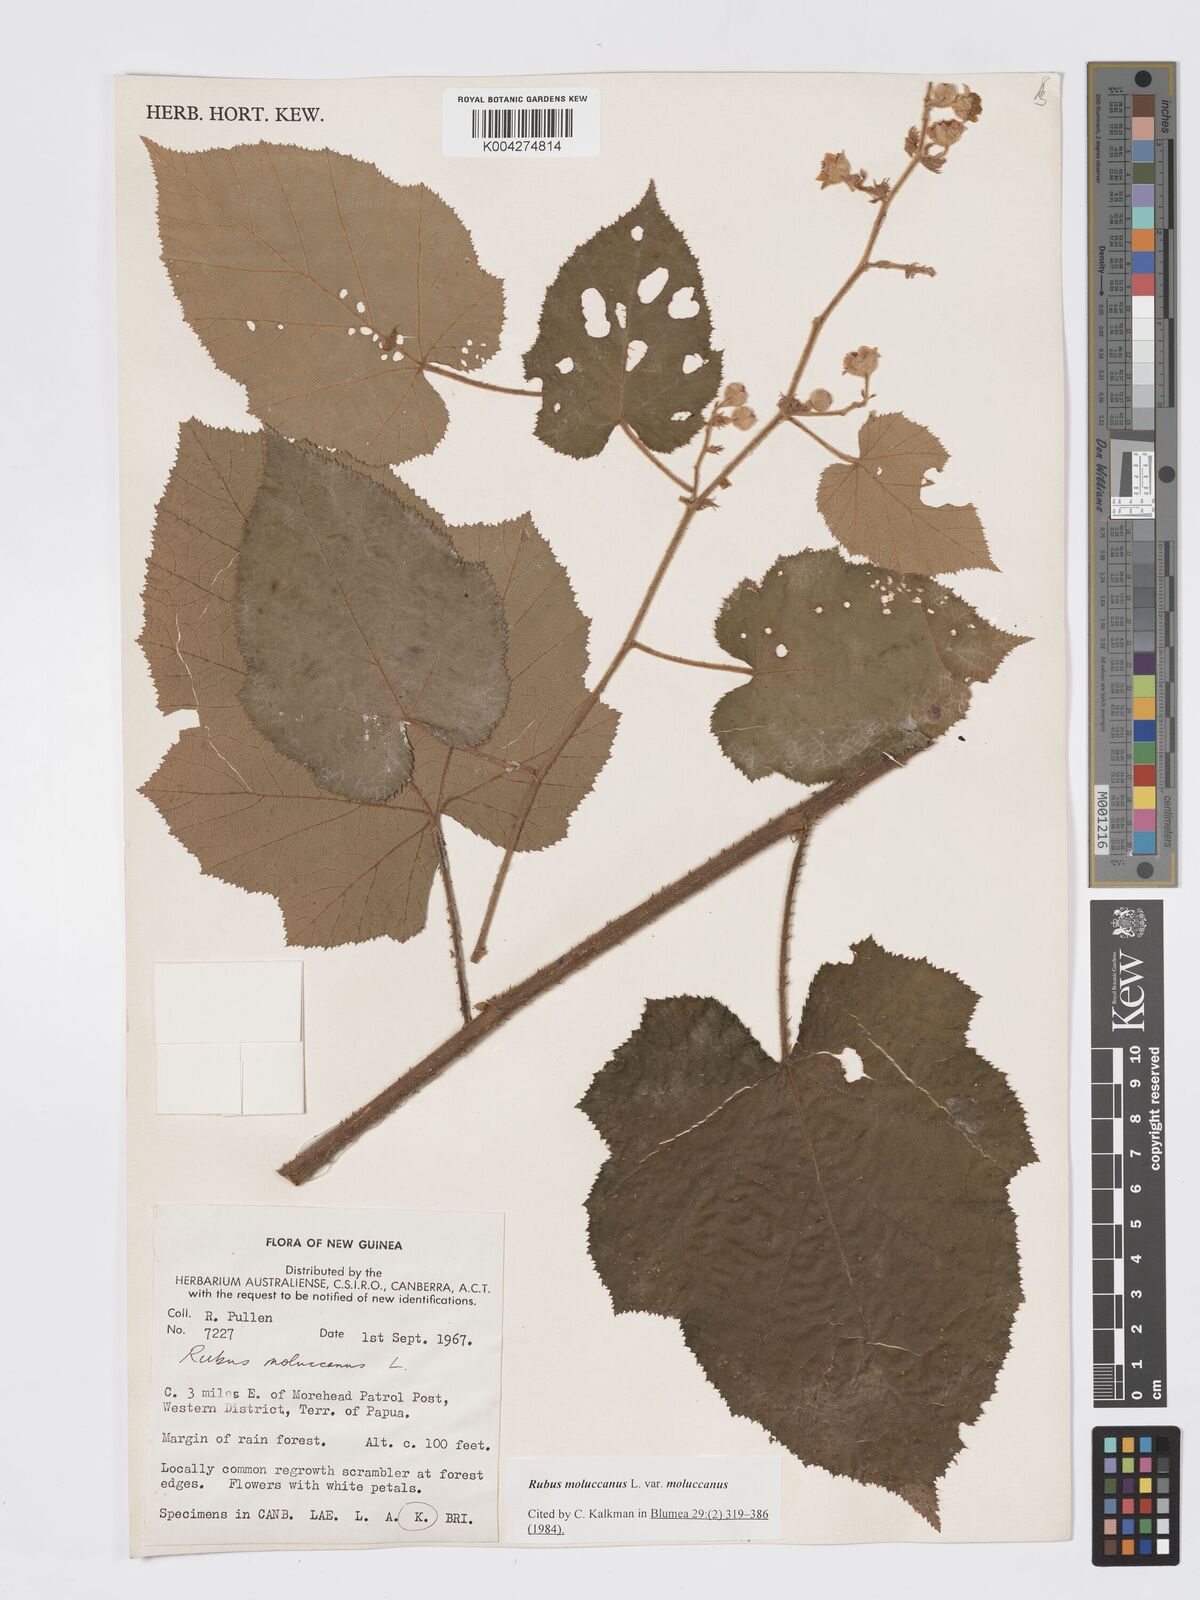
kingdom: Plantae
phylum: Tracheophyta
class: Magnoliopsida
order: Rosales
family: Rosaceae
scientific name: Rosaceae
